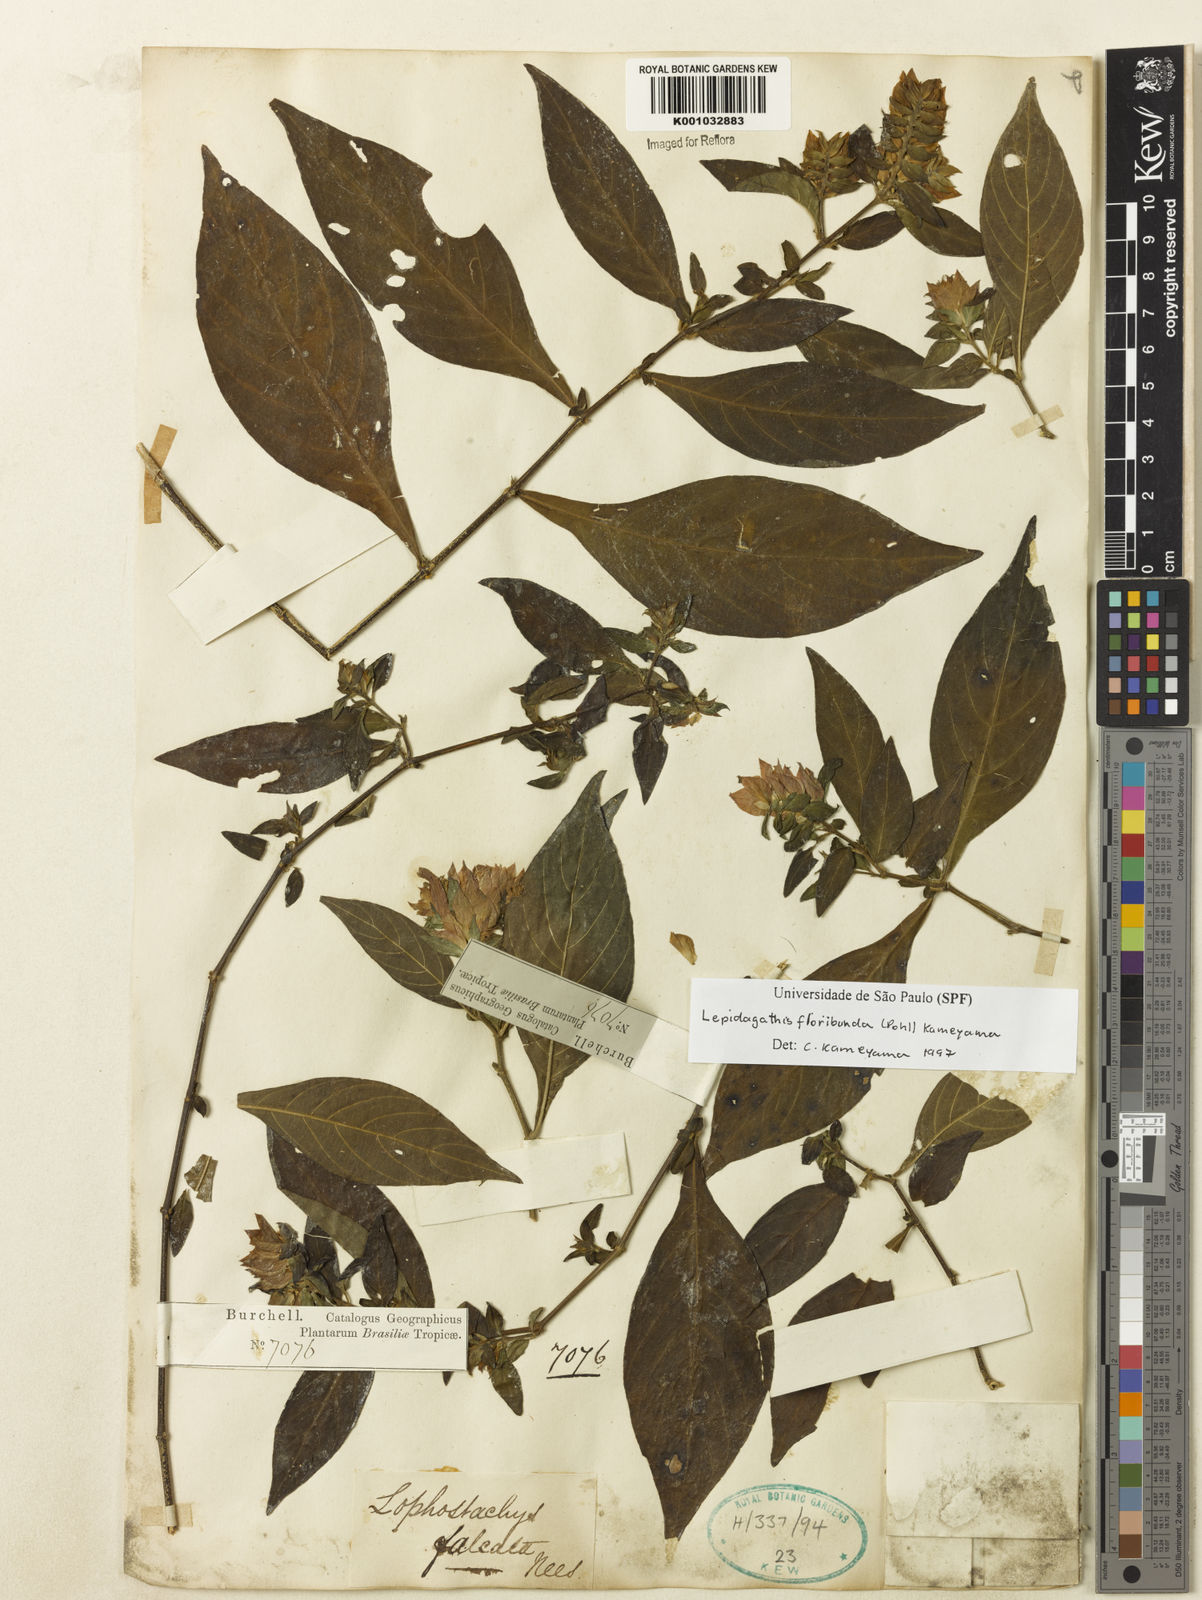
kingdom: Plantae
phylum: Tracheophyta
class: Magnoliopsida
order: Lamiales
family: Acanthaceae
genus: Lepidagathis
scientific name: Lepidagathis floribunda
